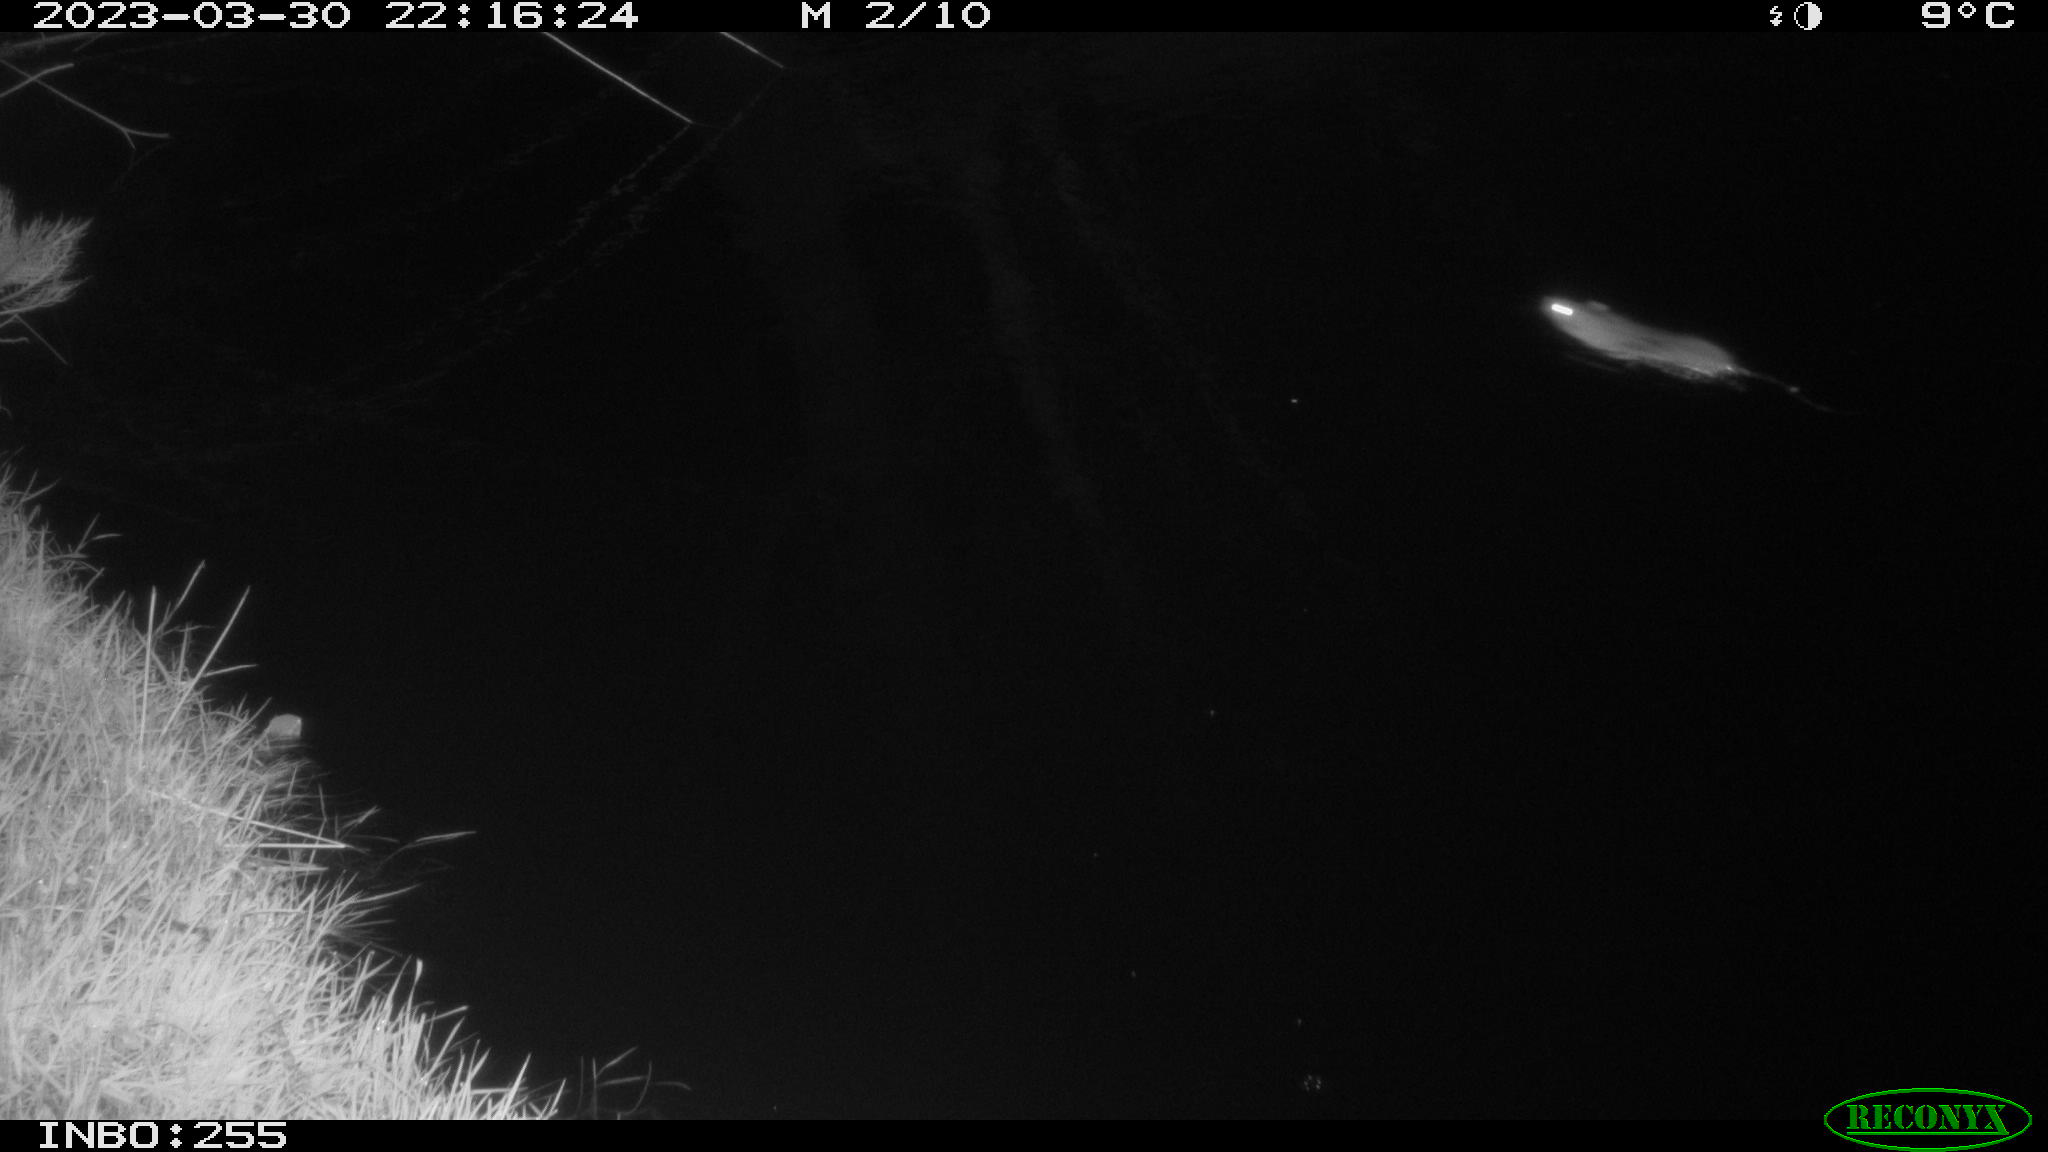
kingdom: Animalia
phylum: Chordata
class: Mammalia
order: Rodentia
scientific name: Rodentia
